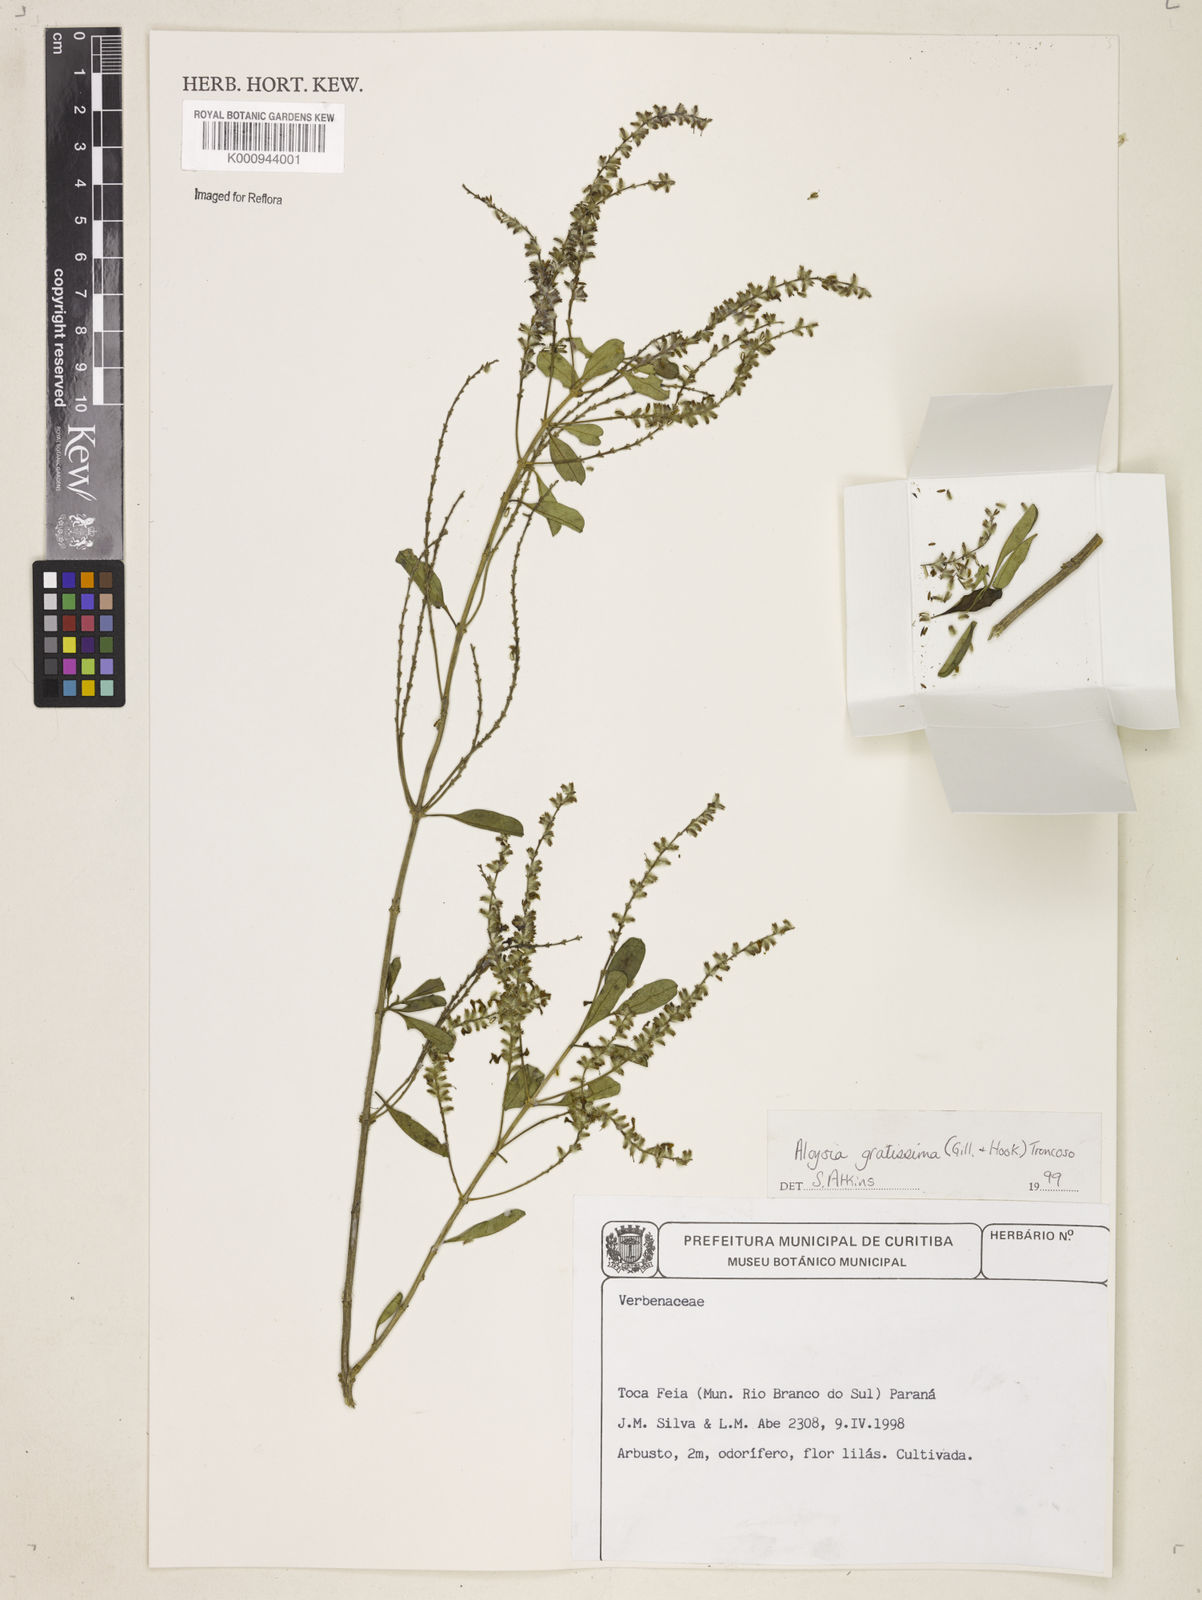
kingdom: Plantae
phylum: Tracheophyta
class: Magnoliopsida
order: Lamiales
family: Verbenaceae
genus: Aloysia
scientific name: Aloysia gratissima
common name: Common bee-brush
